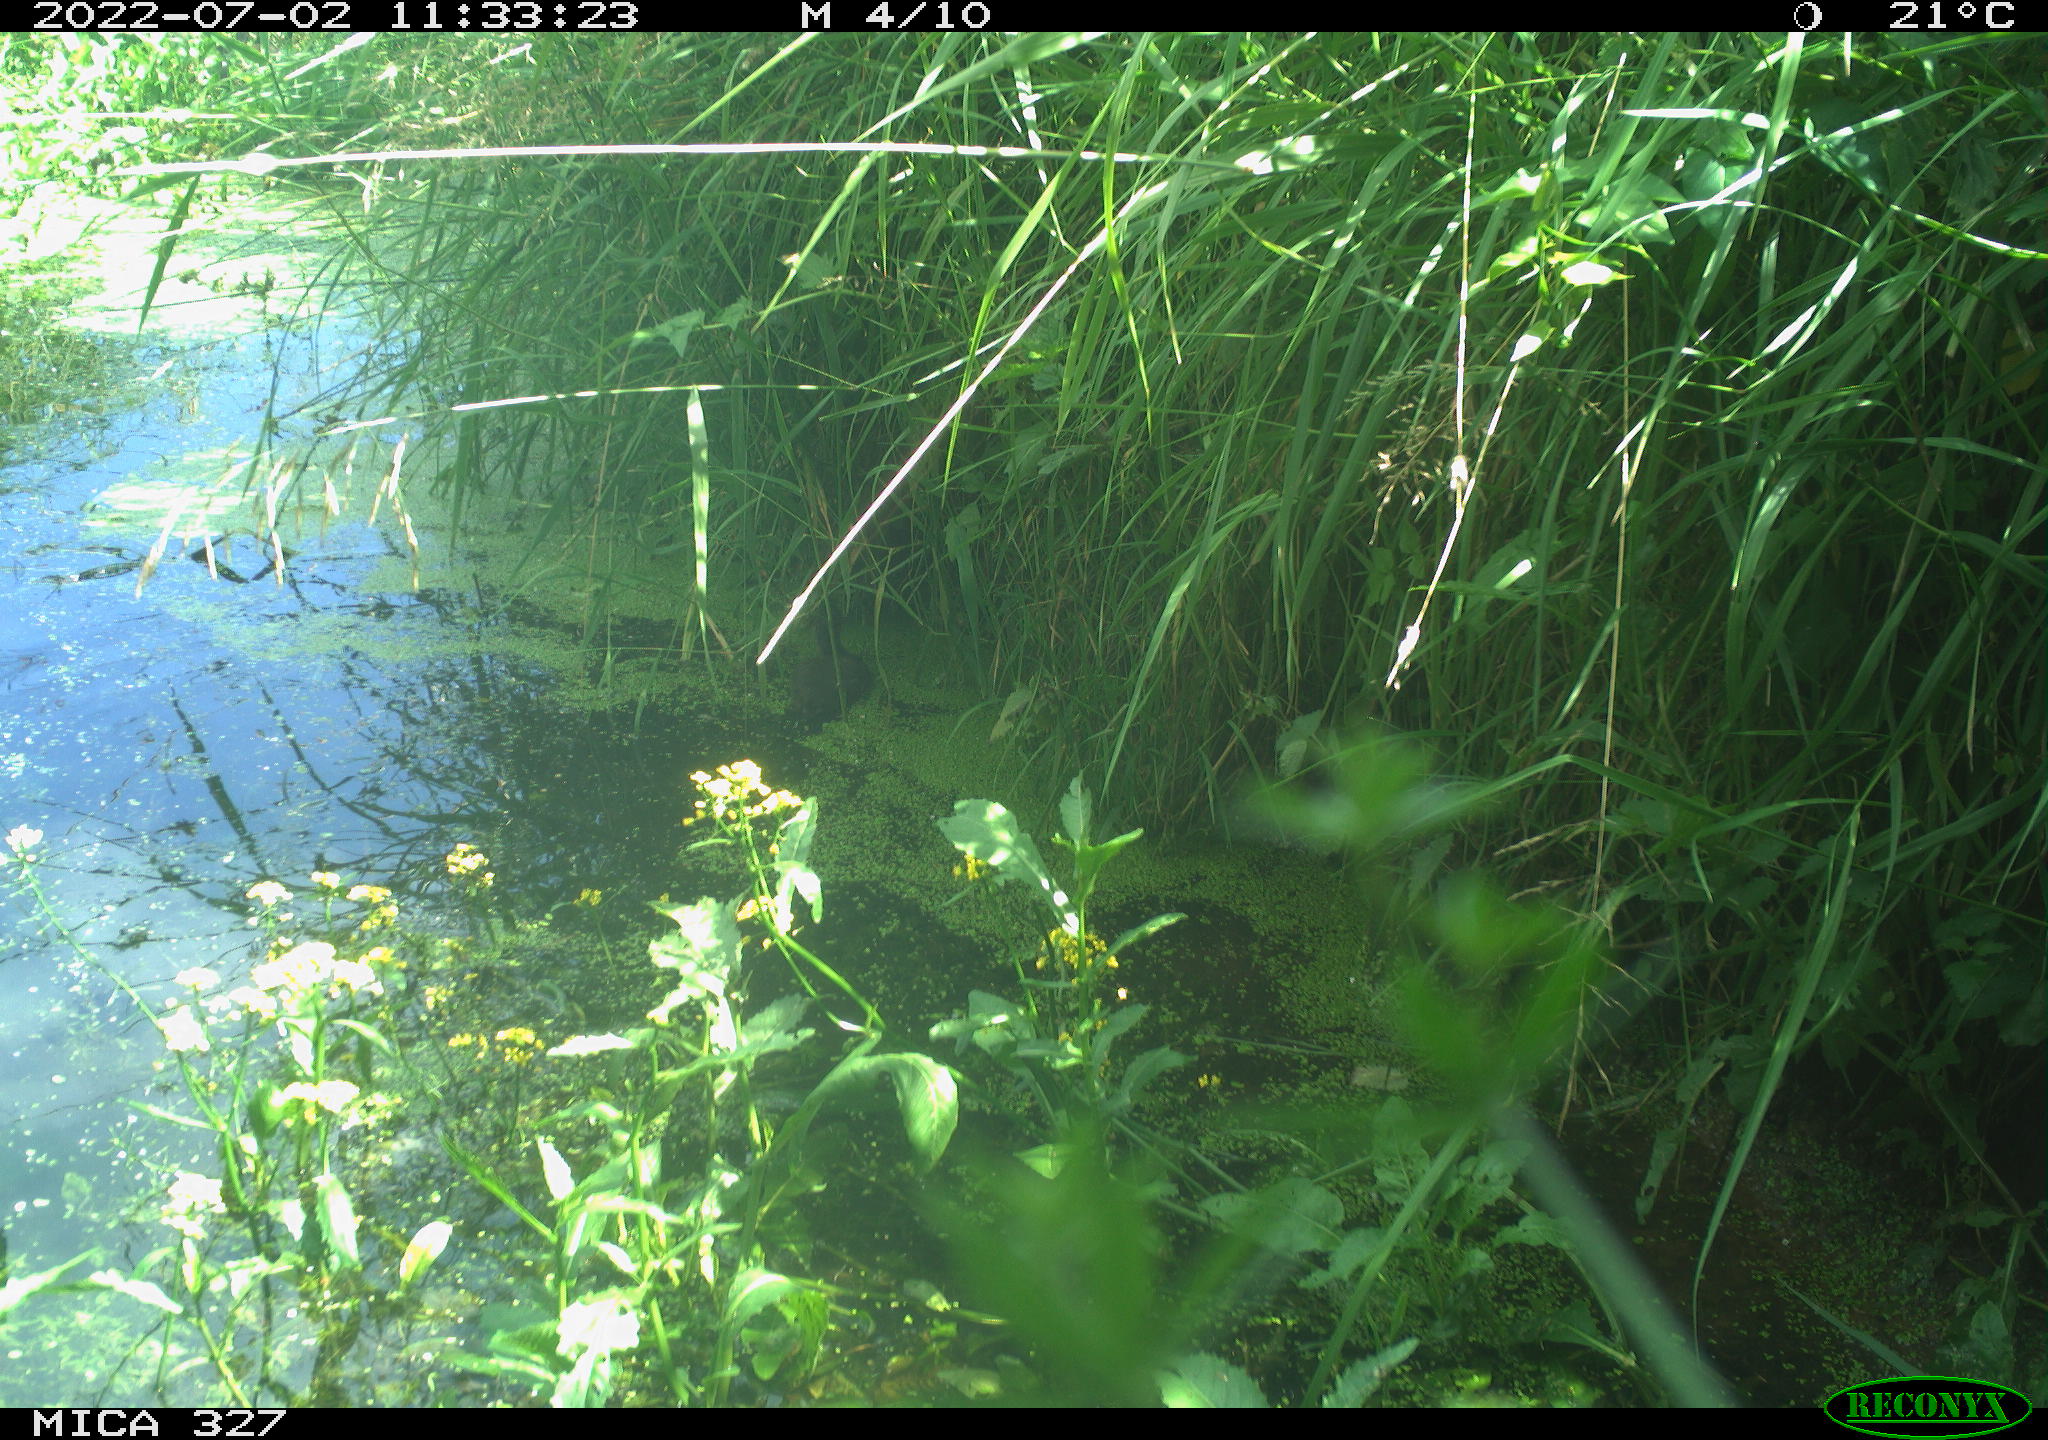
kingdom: Animalia
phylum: Chordata
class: Aves
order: Gruiformes
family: Rallidae
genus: Gallinula
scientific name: Gallinula chloropus
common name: Common moorhen
